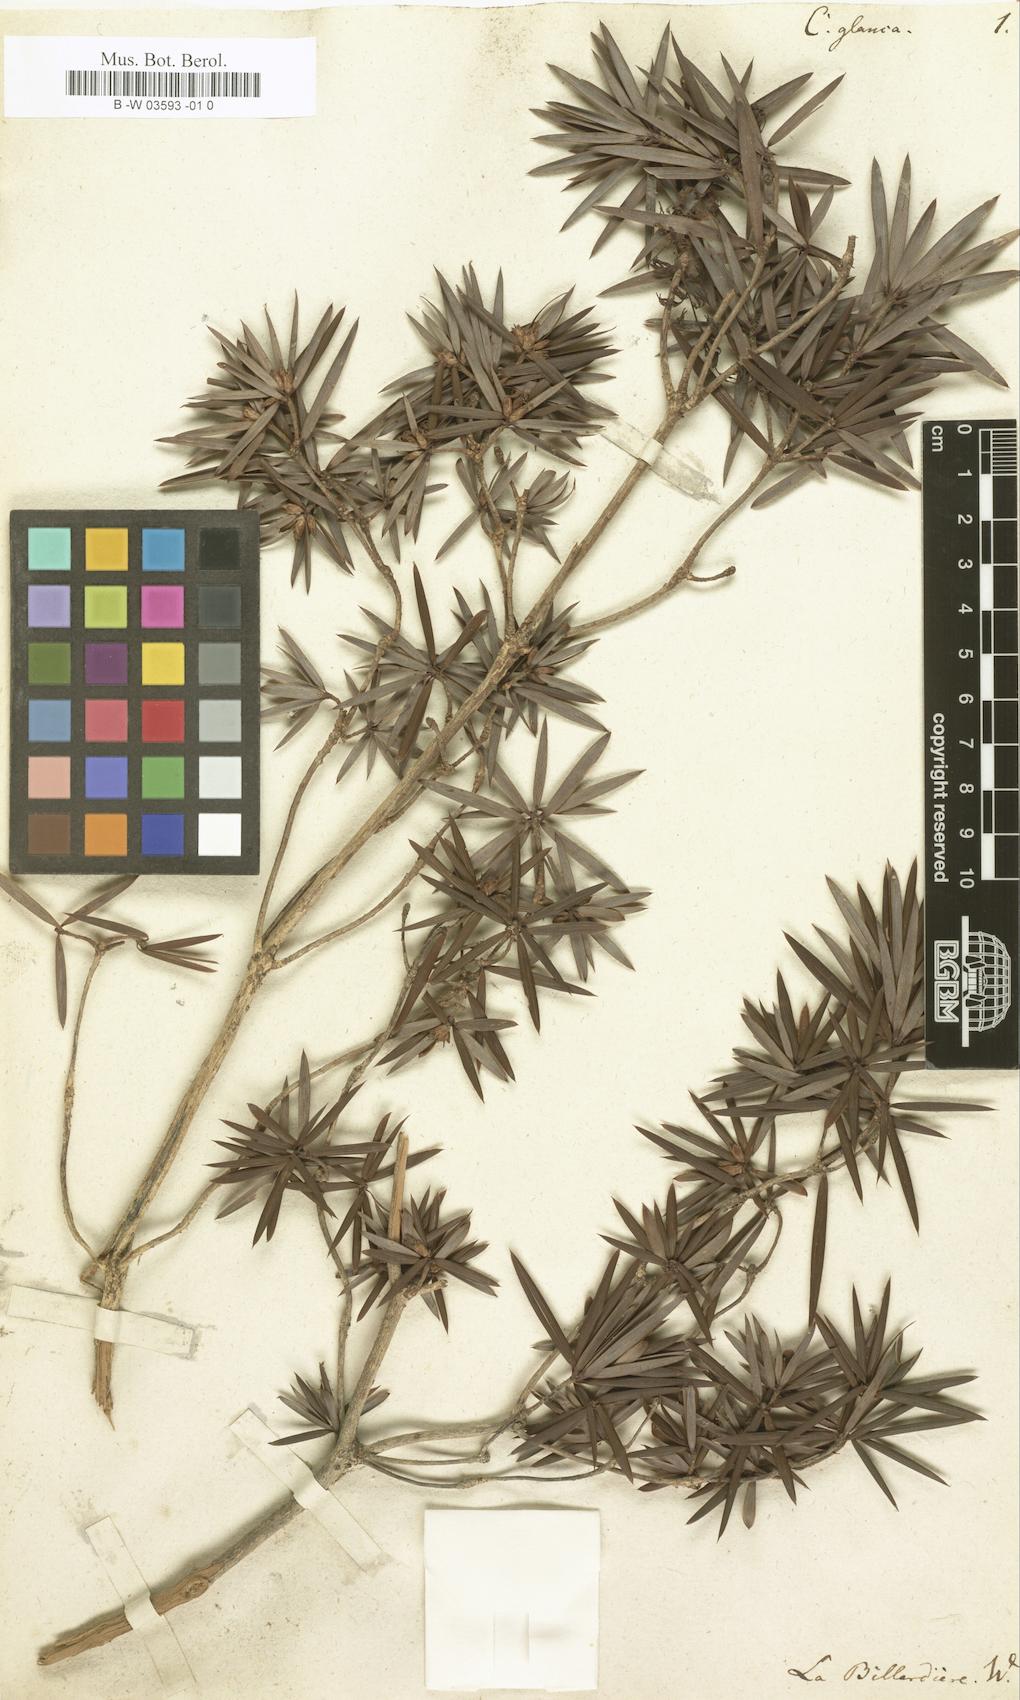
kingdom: Plantae
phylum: Tracheophyta
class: Magnoliopsida
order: Ericales
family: Ericaceae
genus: Cyathodes
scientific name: Cyathodes glauca
